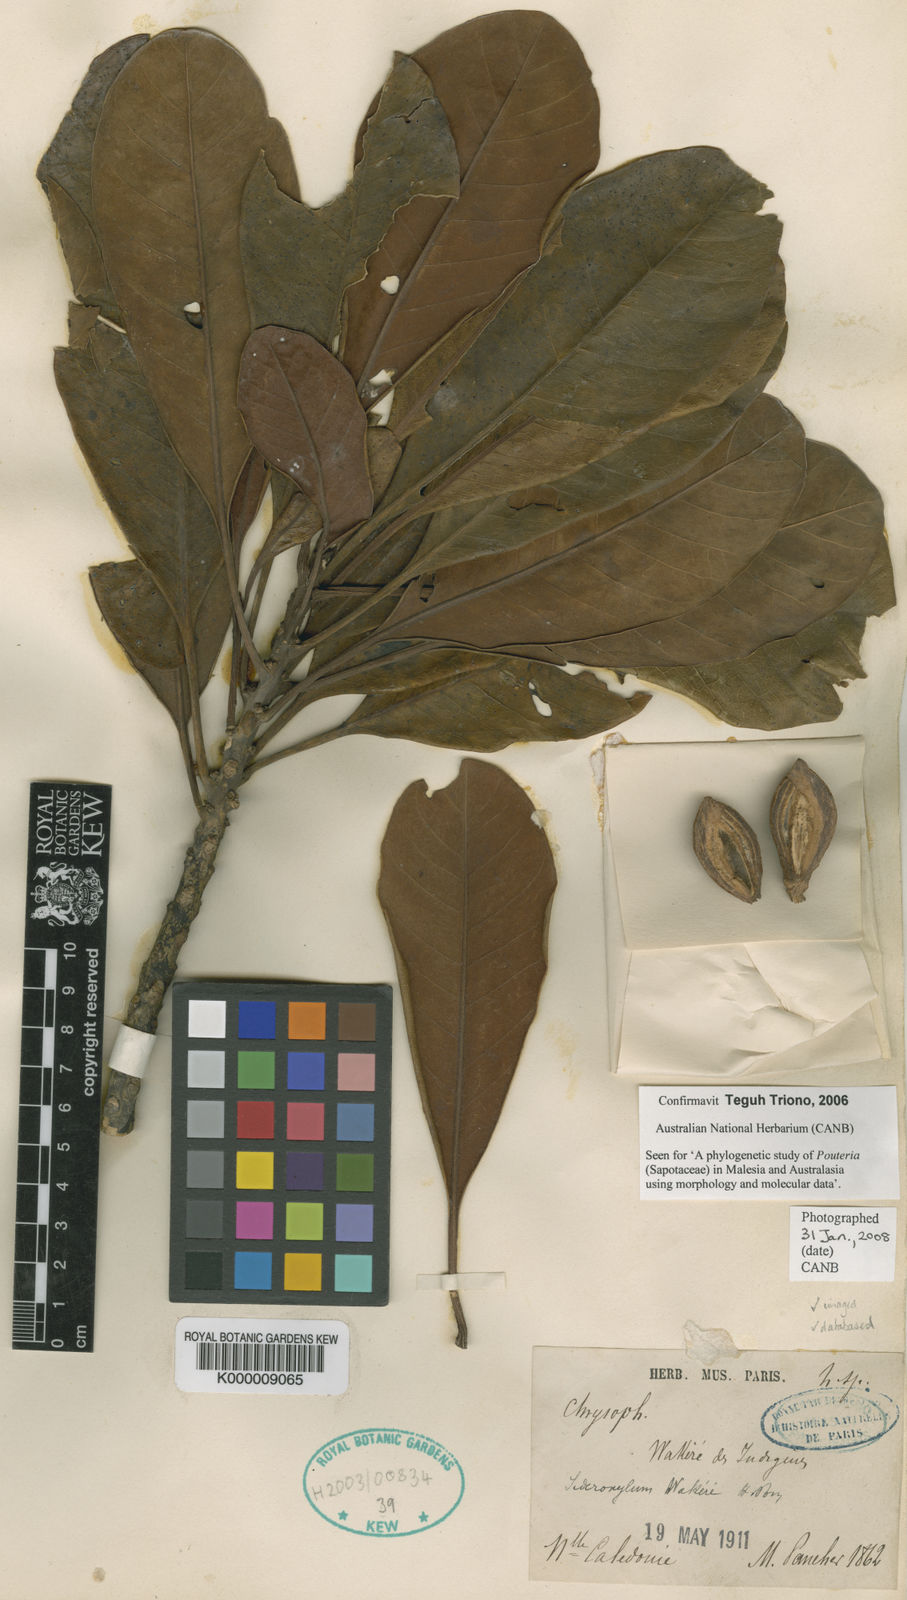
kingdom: Plantae
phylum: Tracheophyta
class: Magnoliopsida
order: Ericales
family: Sapotaceae
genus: Planchonella
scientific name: Planchonella wakere
